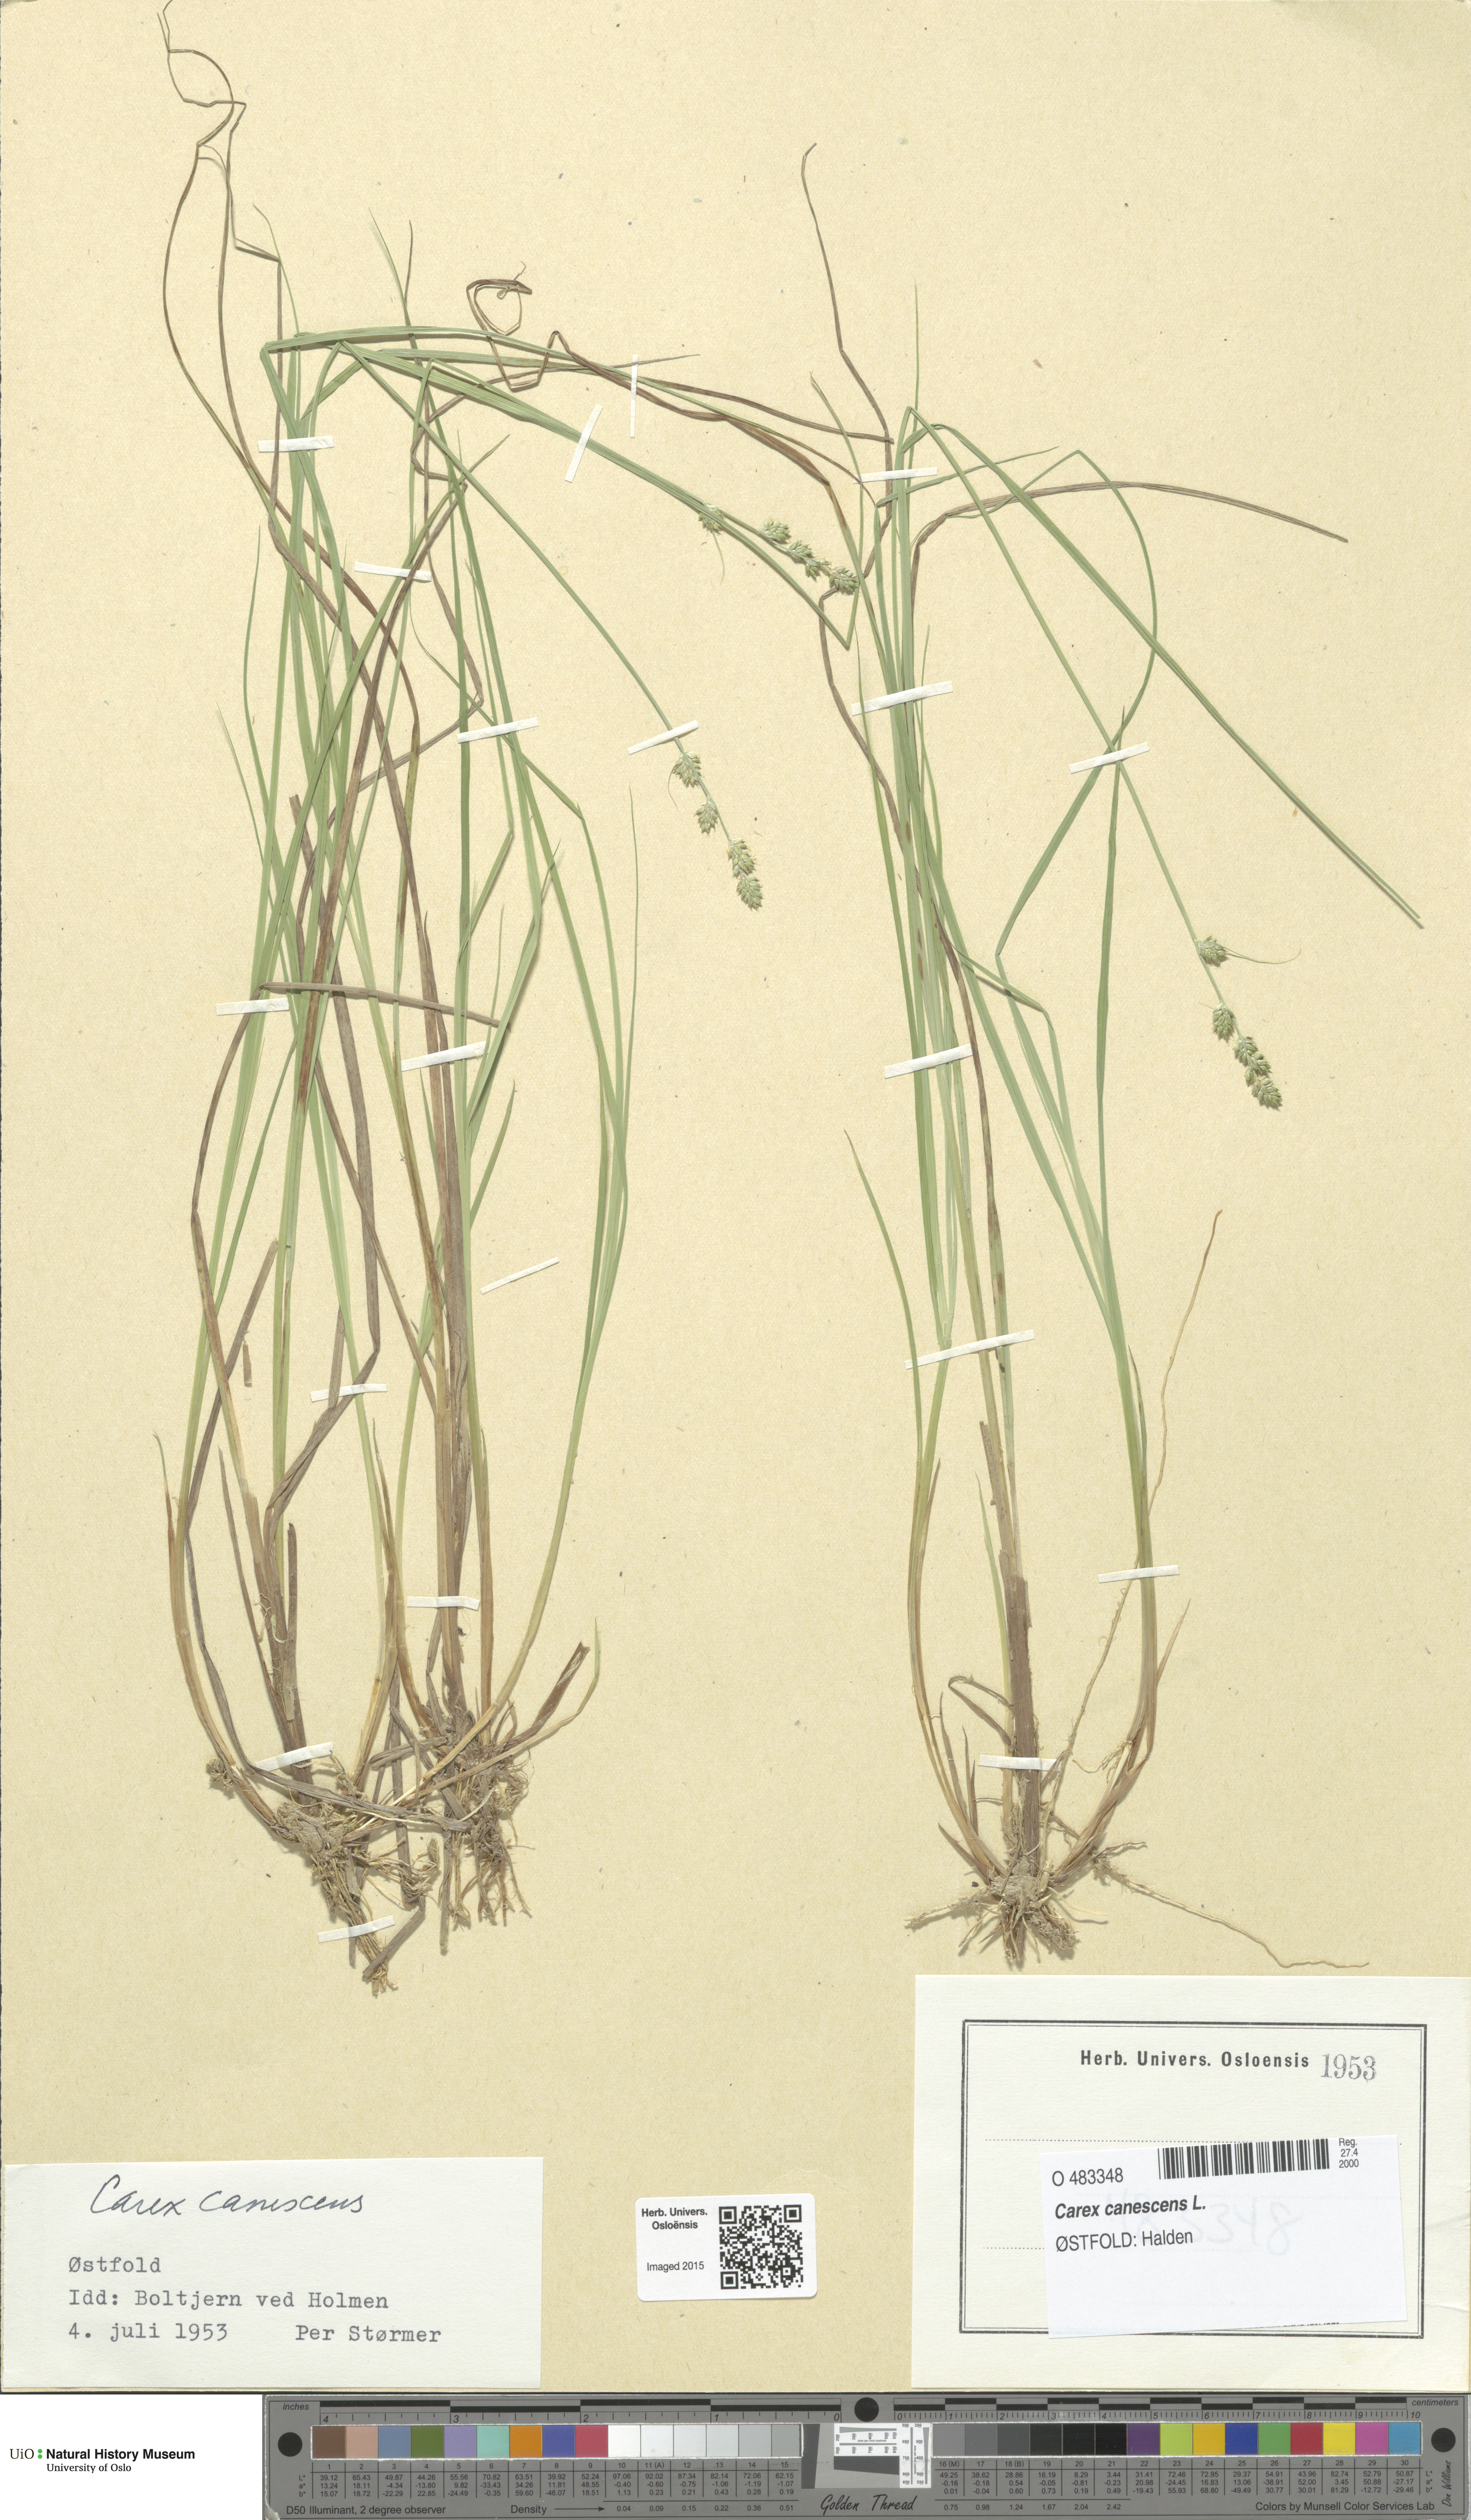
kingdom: Plantae
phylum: Tracheophyta
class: Liliopsida
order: Poales
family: Cyperaceae
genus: Carex
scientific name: Carex canescens
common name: White sedge
